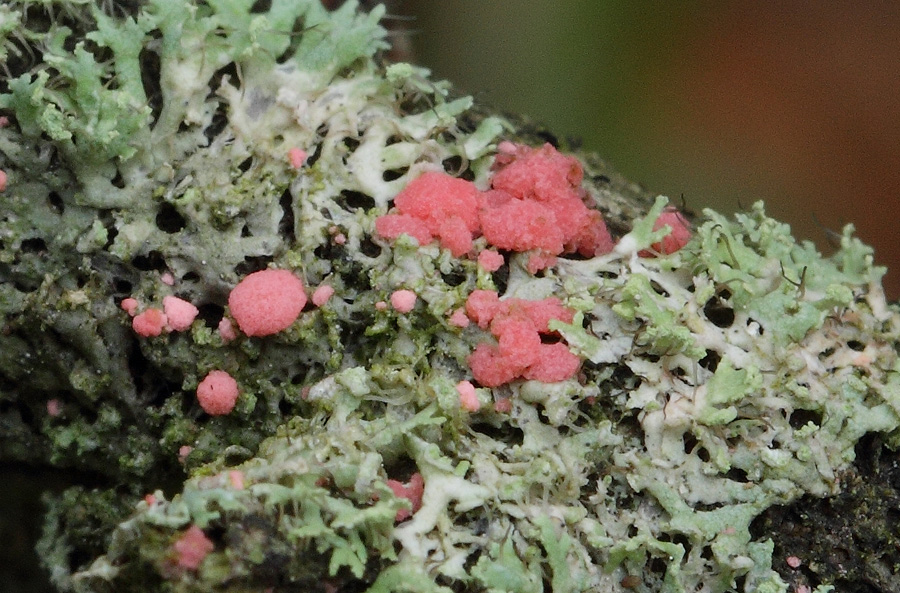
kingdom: Fungi
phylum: Ascomycota
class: Sordariomycetes
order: Hypocreales
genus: Illosporiopsis
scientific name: Illosporiopsis christiansenii
